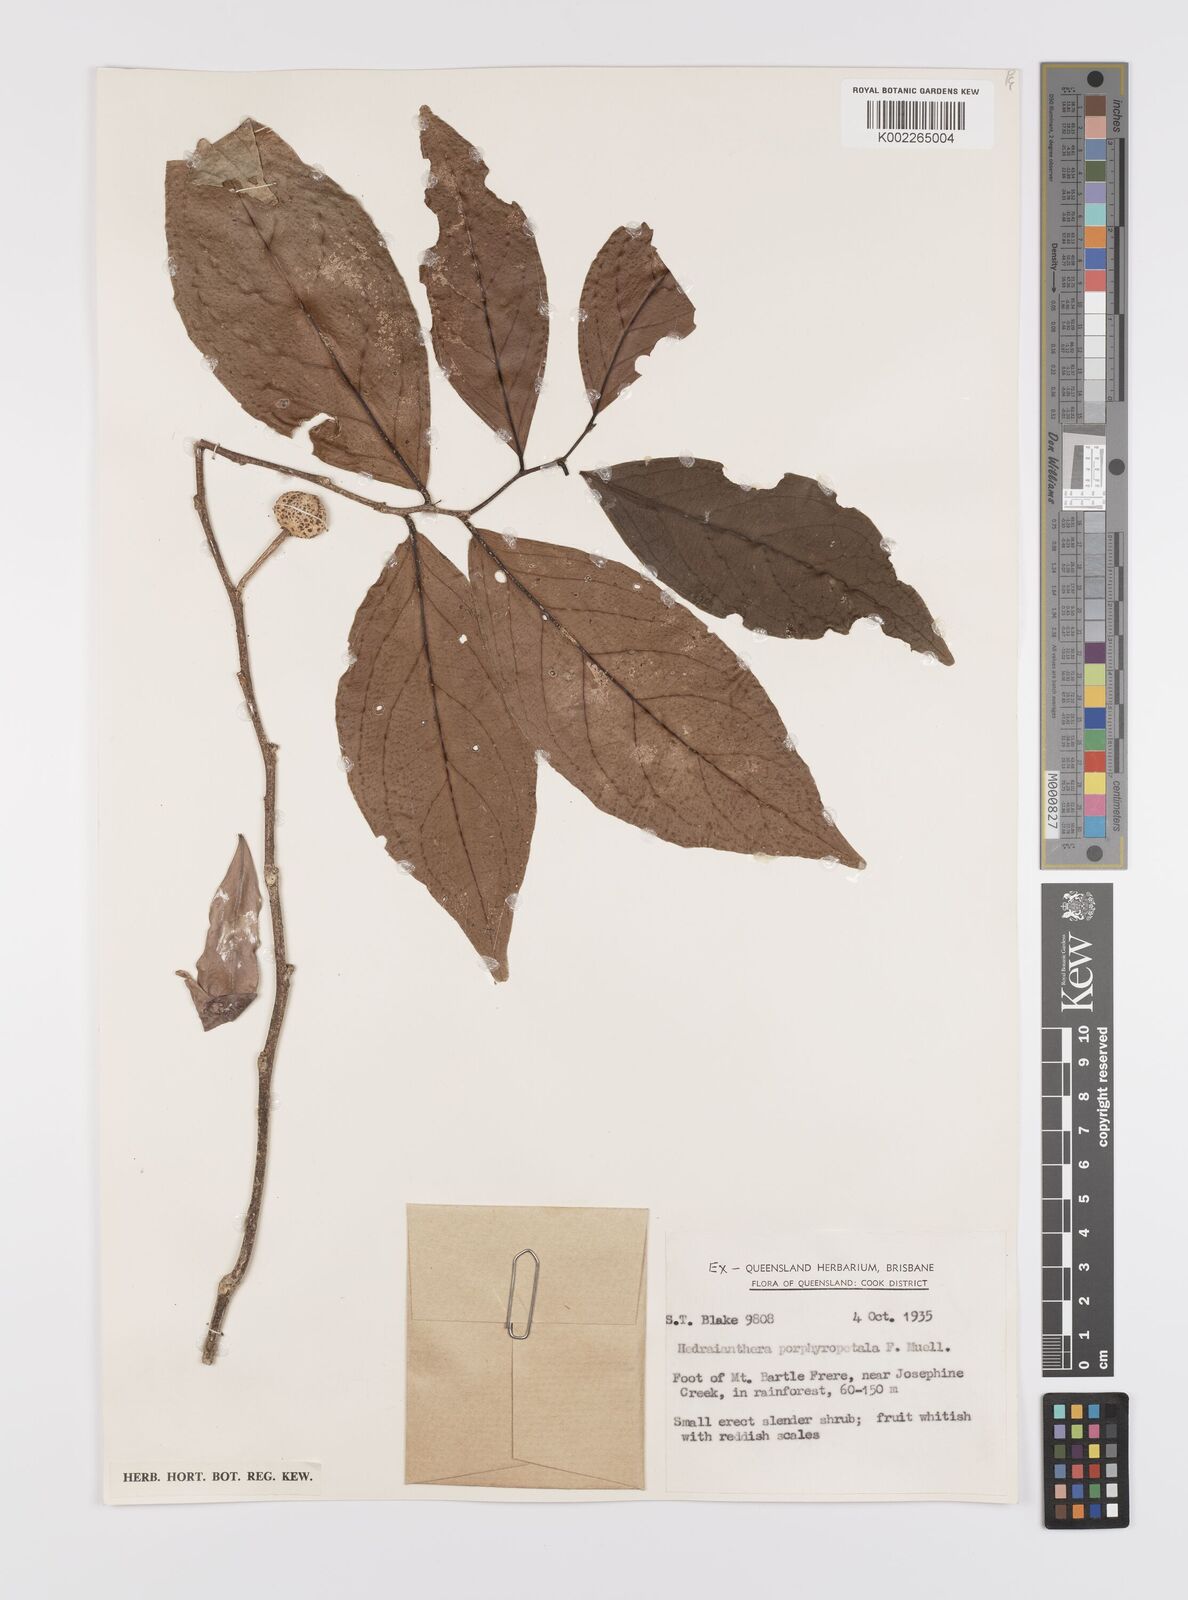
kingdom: Plantae
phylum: Tracheophyta
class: Magnoliopsida
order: Celastrales
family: Celastraceae
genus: Hedraianthera
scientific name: Hedraianthera porphyropetala
